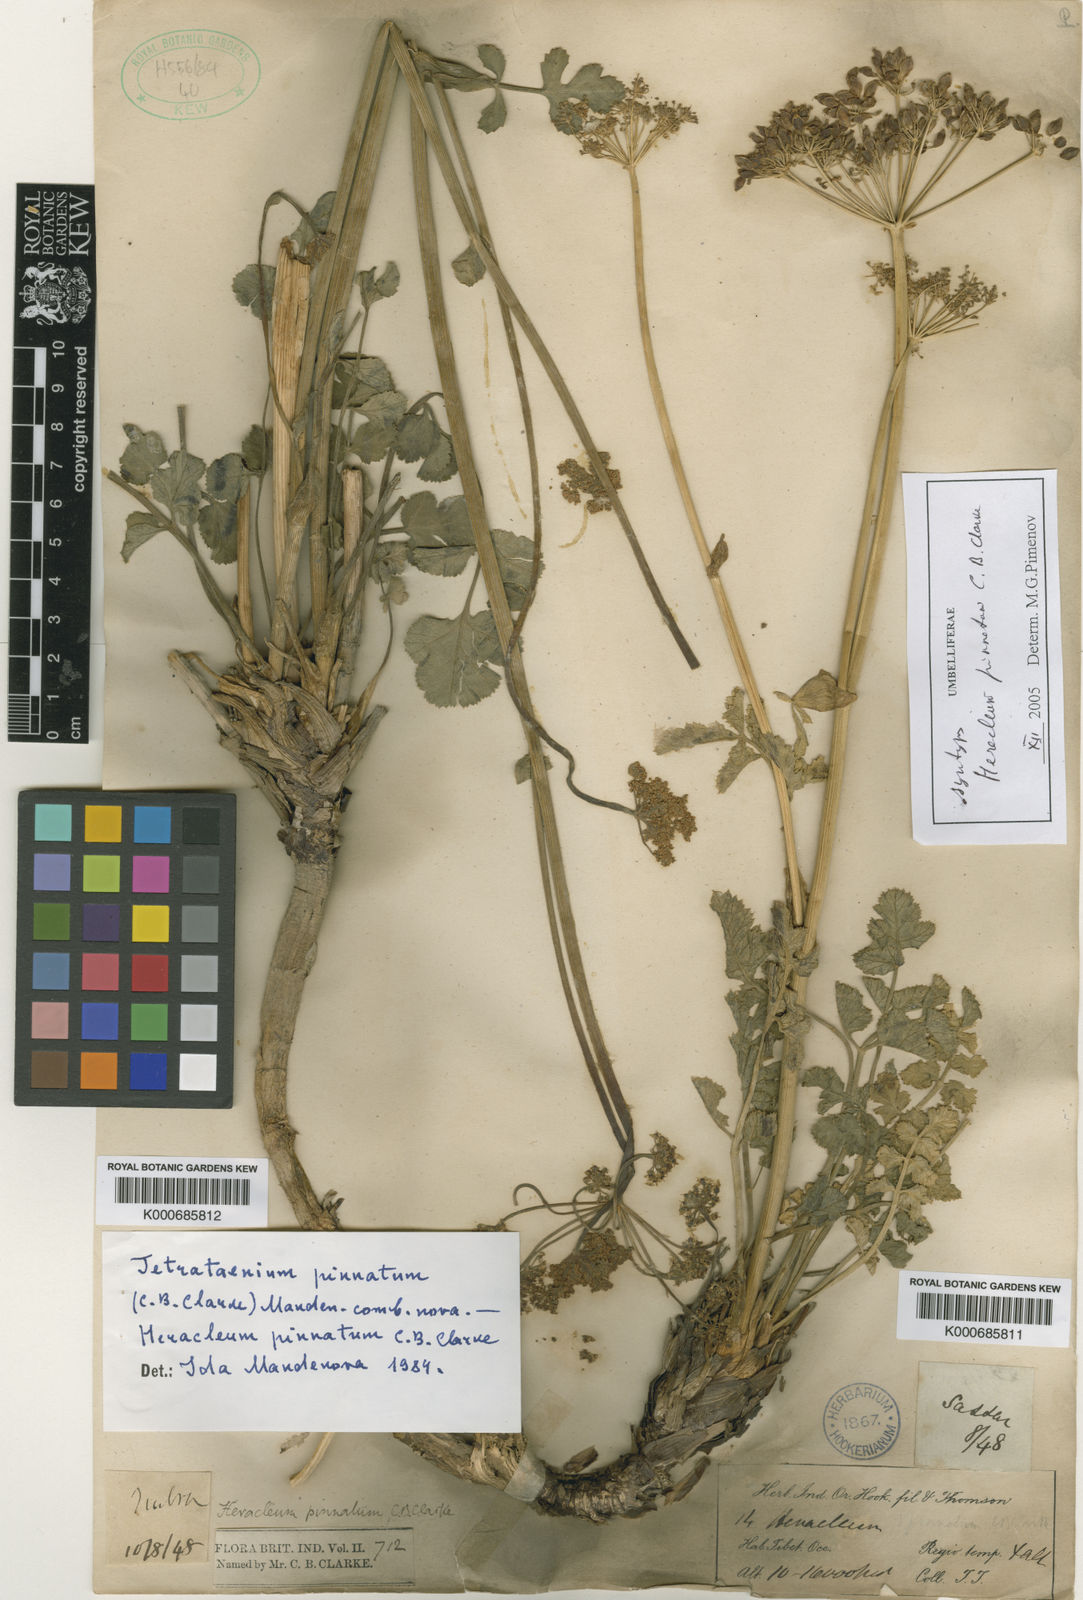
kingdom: Plantae
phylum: Tracheophyta
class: Magnoliopsida
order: Apiales
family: Apiaceae
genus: Tetrataenium
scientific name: Tetrataenium pinnatum
